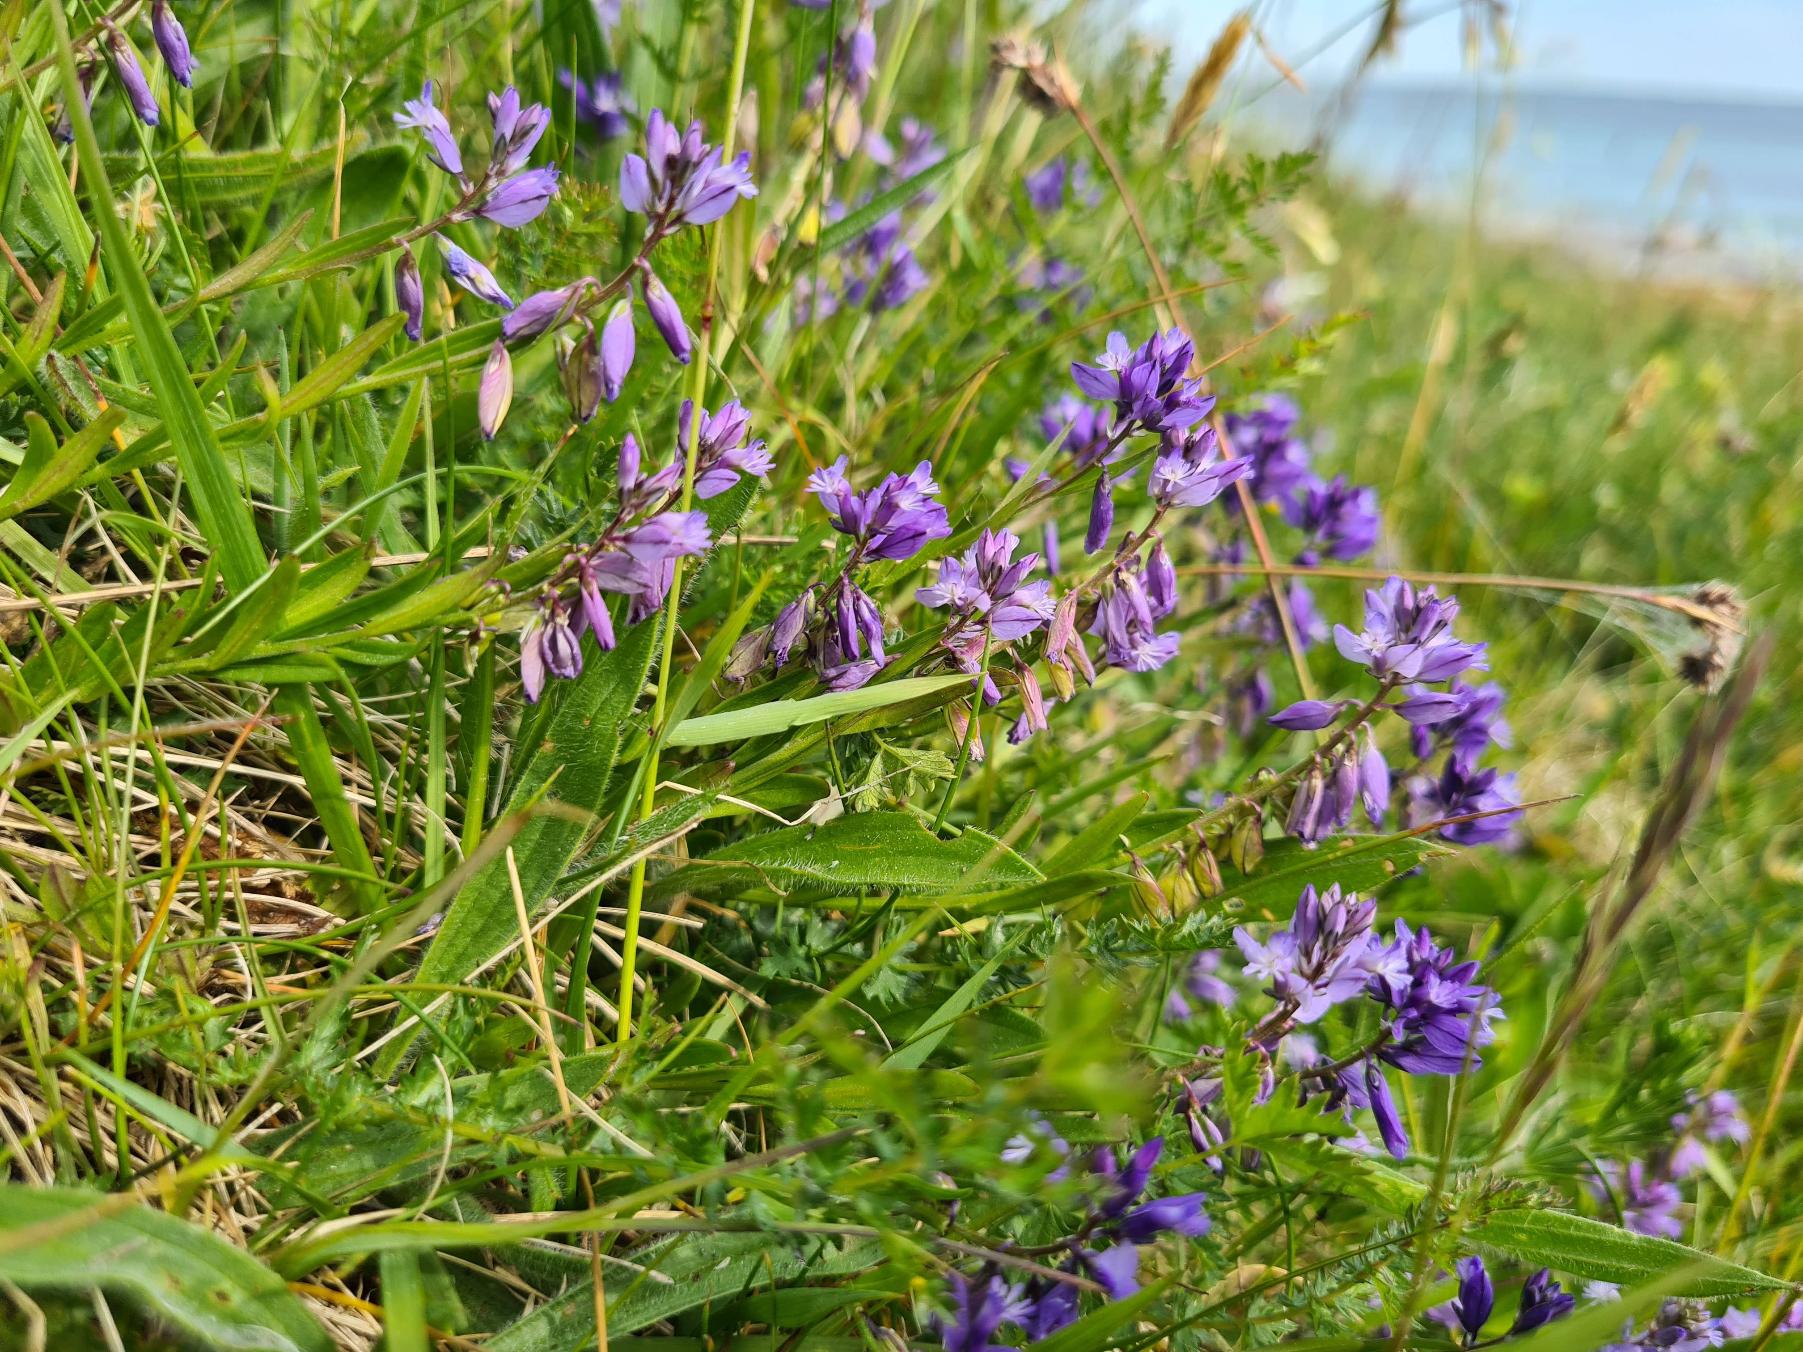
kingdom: Plantae
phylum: Tracheophyta
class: Magnoliopsida
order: Fabales
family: Polygalaceae
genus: Polygala
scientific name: Polygala vulgaris
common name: Almindelig mælkeurt
